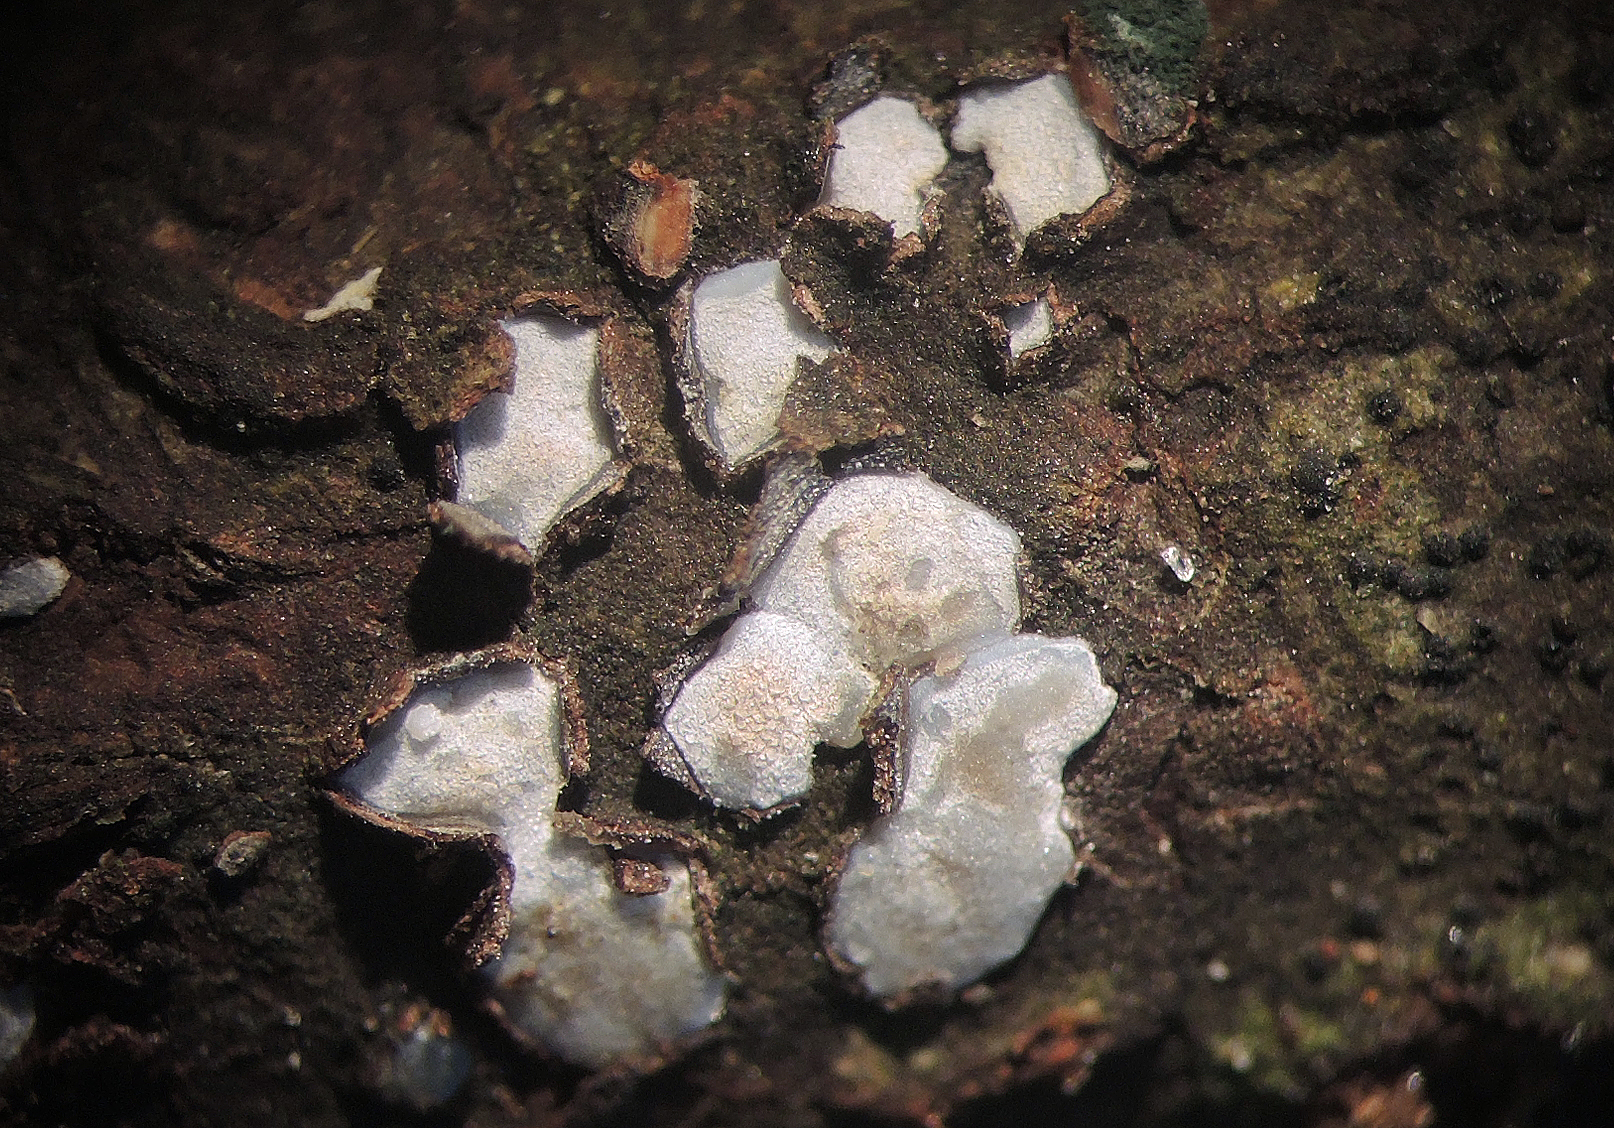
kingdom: Fungi
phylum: Ascomycota
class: Leotiomycetes
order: Chaetomellales
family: Marthamycetaceae
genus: Propolis
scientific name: Propolis farinosa
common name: almindelig vedsprængerskive
